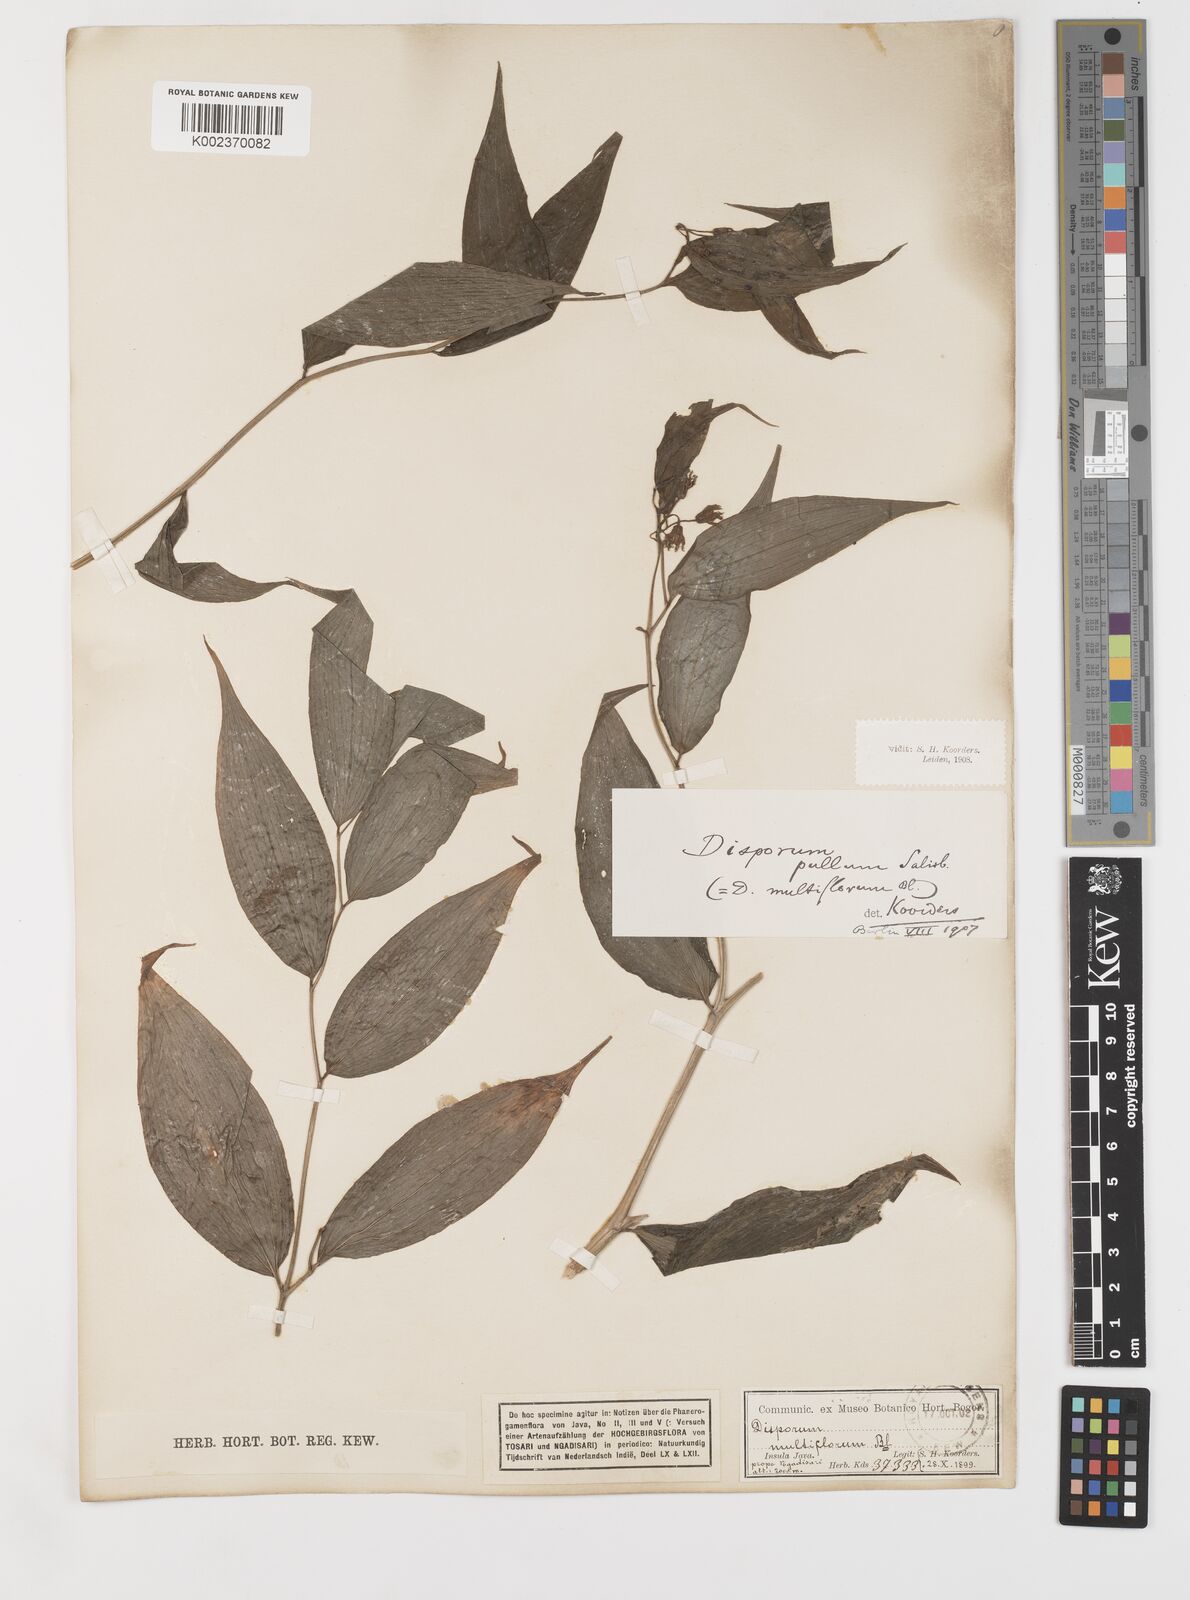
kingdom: Plantae
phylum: Tracheophyta
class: Liliopsida
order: Liliales
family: Colchicaceae
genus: Disporum
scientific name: Disporum cantoniense
